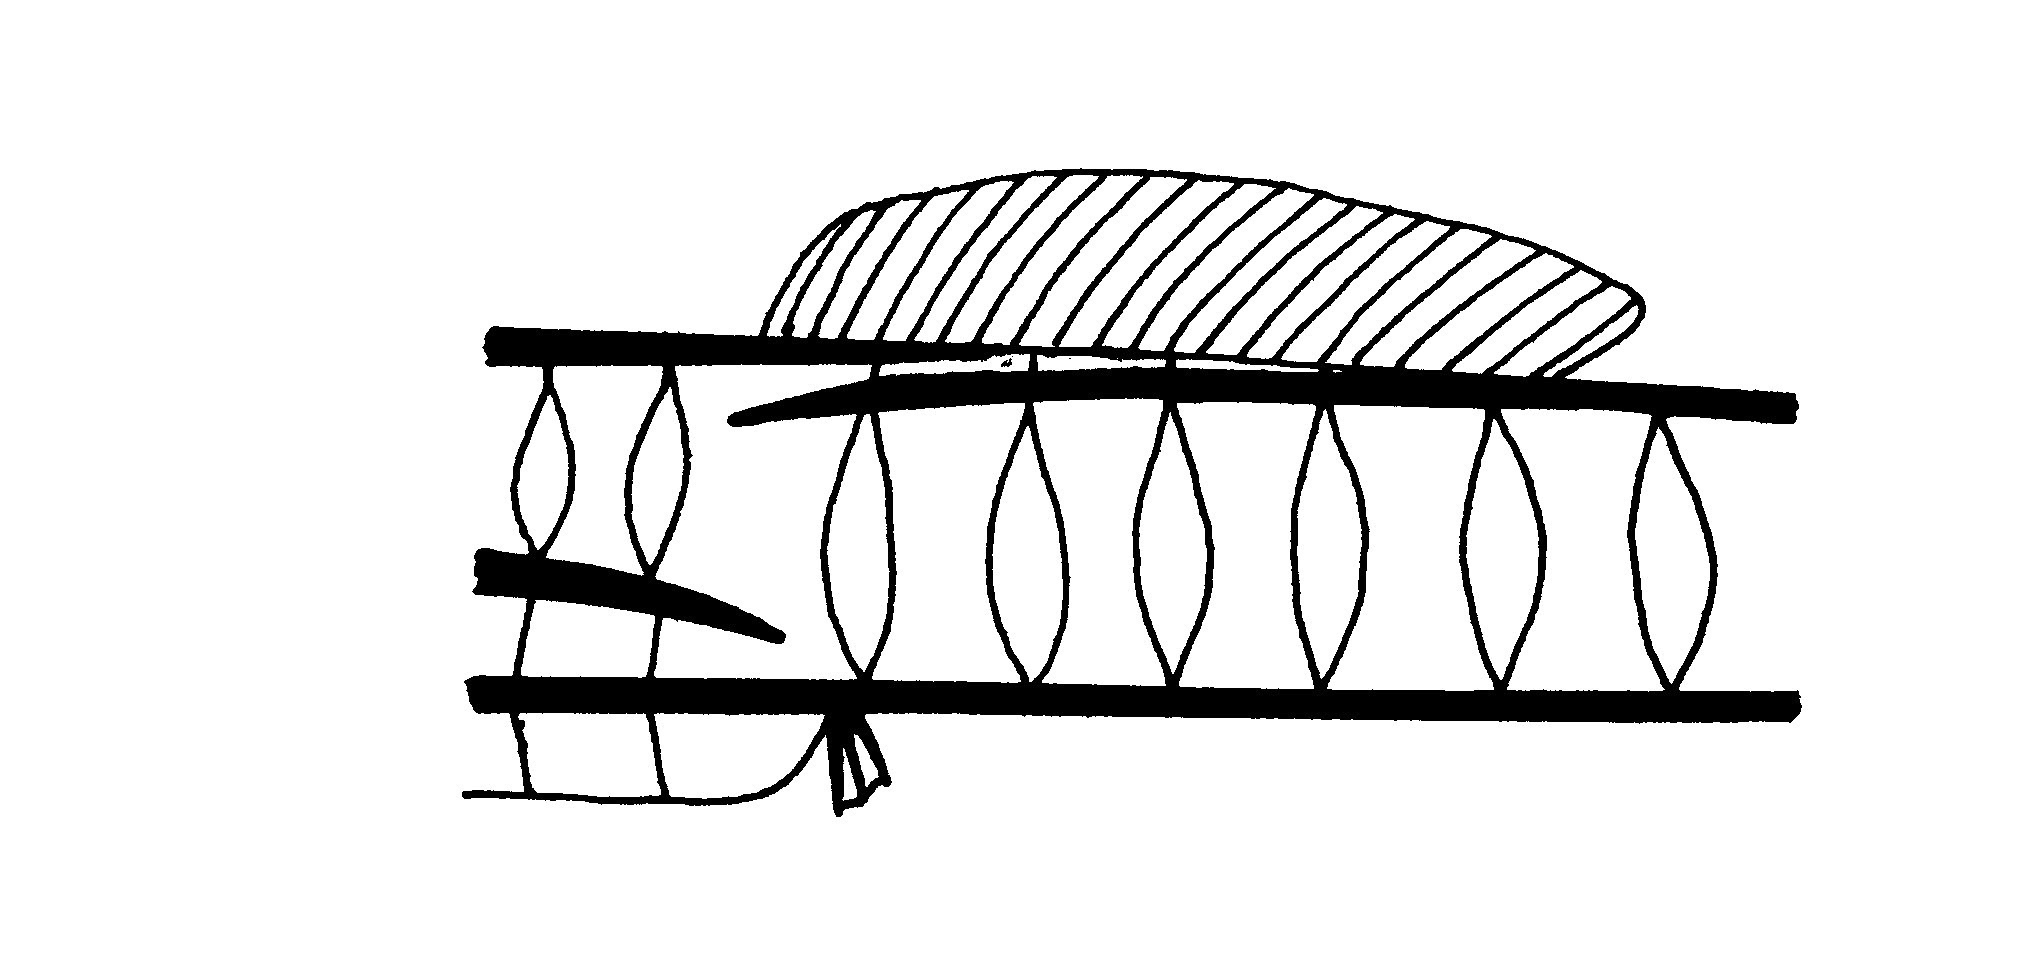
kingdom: Animalia
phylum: Chordata
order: Syngnathiformes
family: Syngnathidae
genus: Hippichthys
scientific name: Hippichthys cyanospilos
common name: Blue-spotted pipefish
